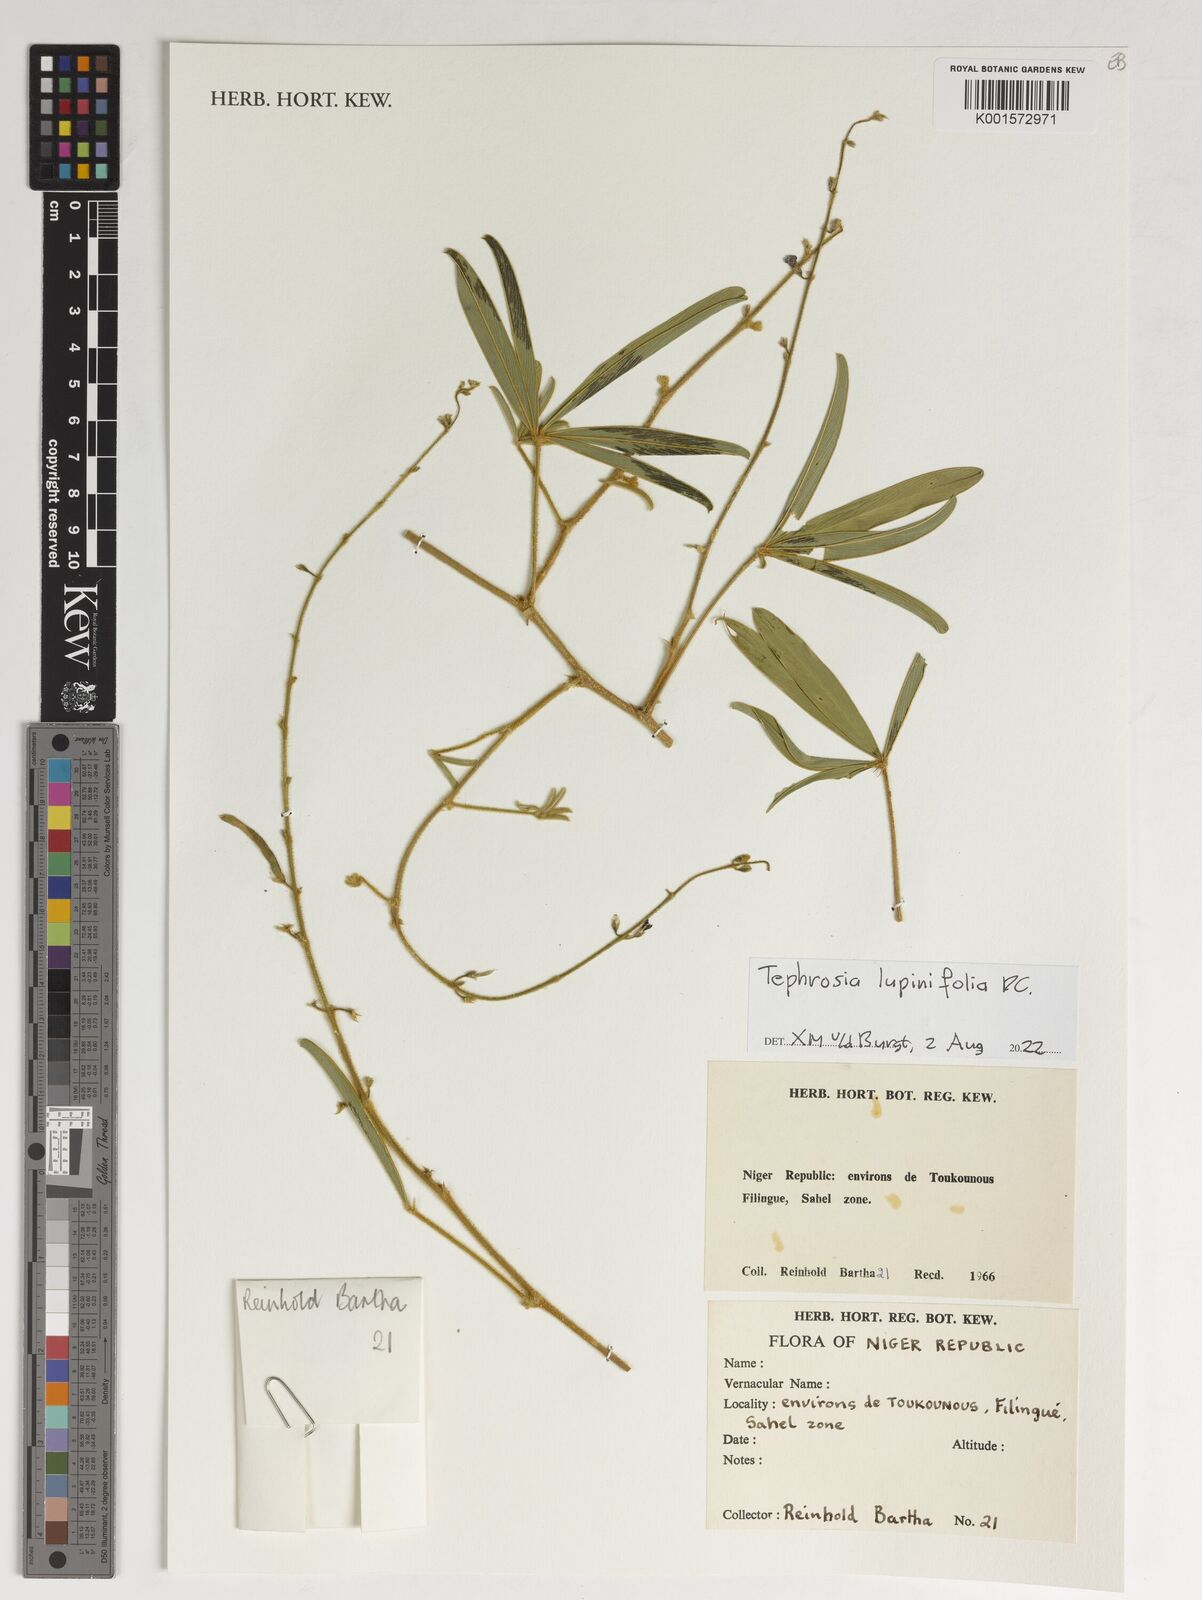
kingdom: Plantae
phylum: Tracheophyta
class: Magnoliopsida
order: Fabales
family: Fabaceae
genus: Tephrosia
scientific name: Tephrosia lupinifolia
